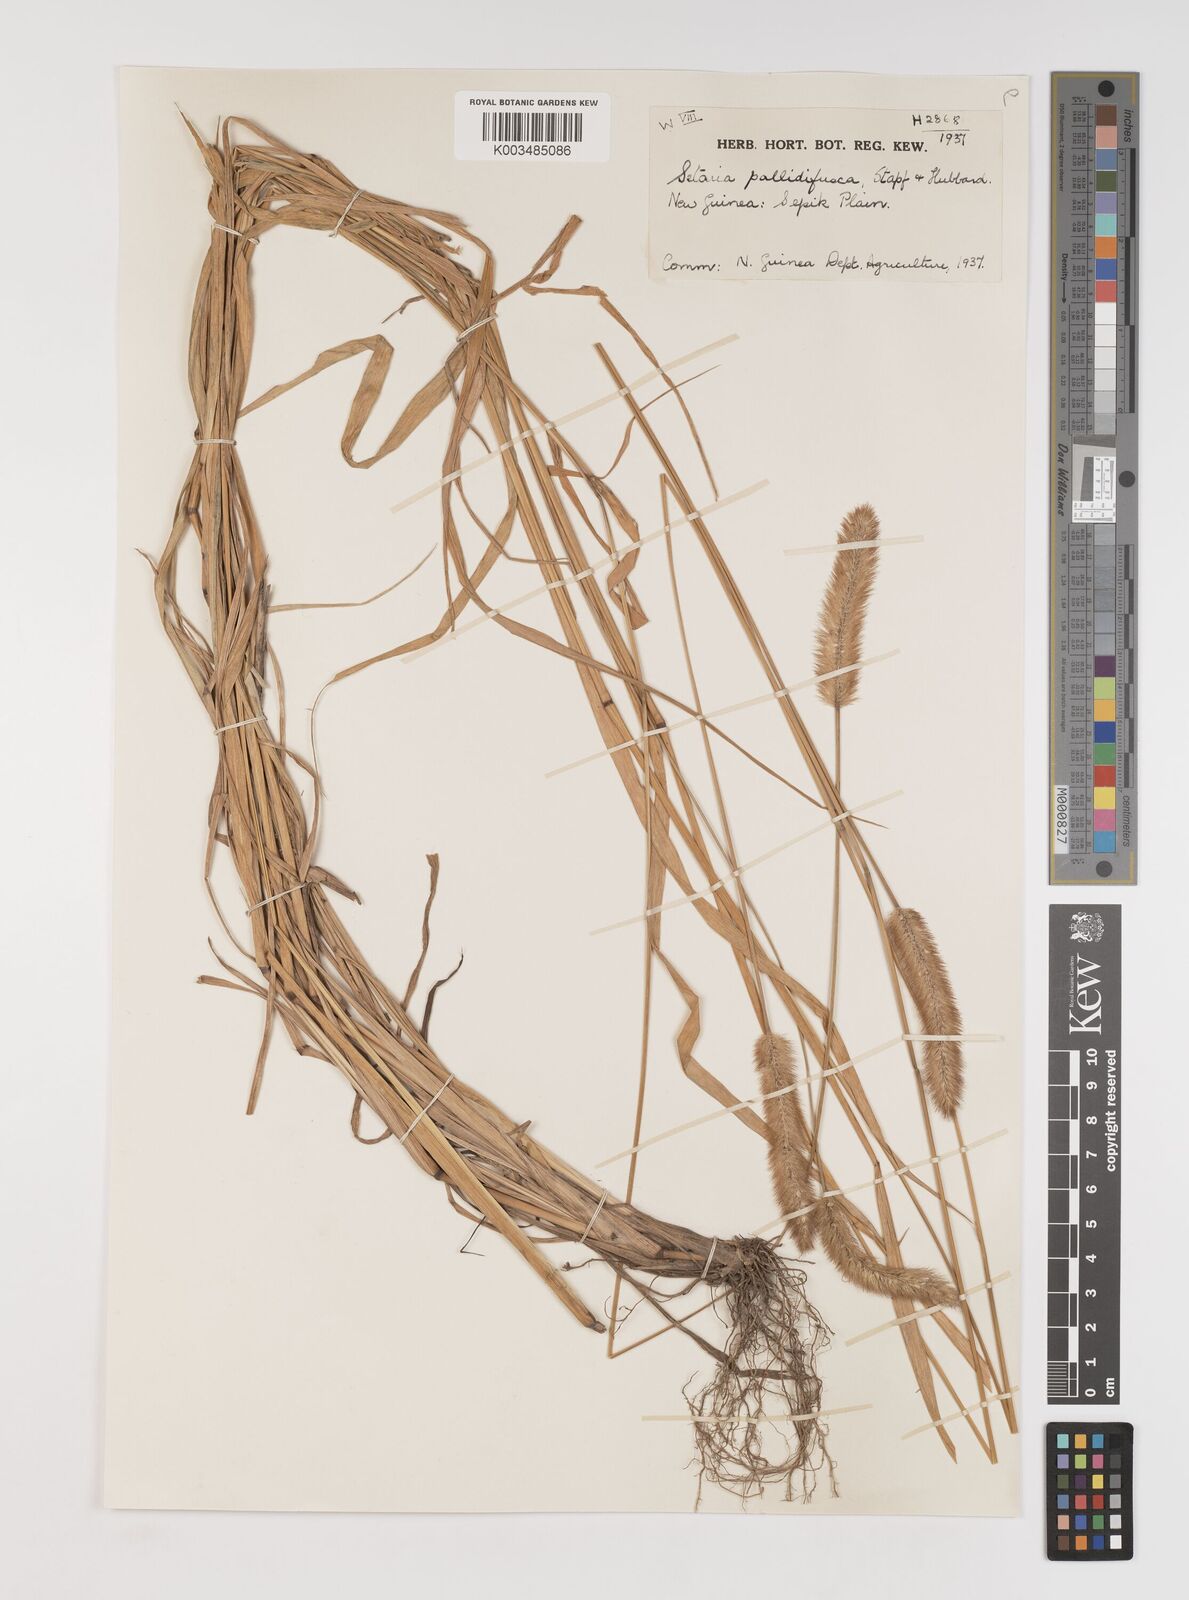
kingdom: Plantae
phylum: Tracheophyta
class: Liliopsida
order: Poales
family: Poaceae
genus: Setaria
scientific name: Setaria parviflora
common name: Knotroot bristle-grass
